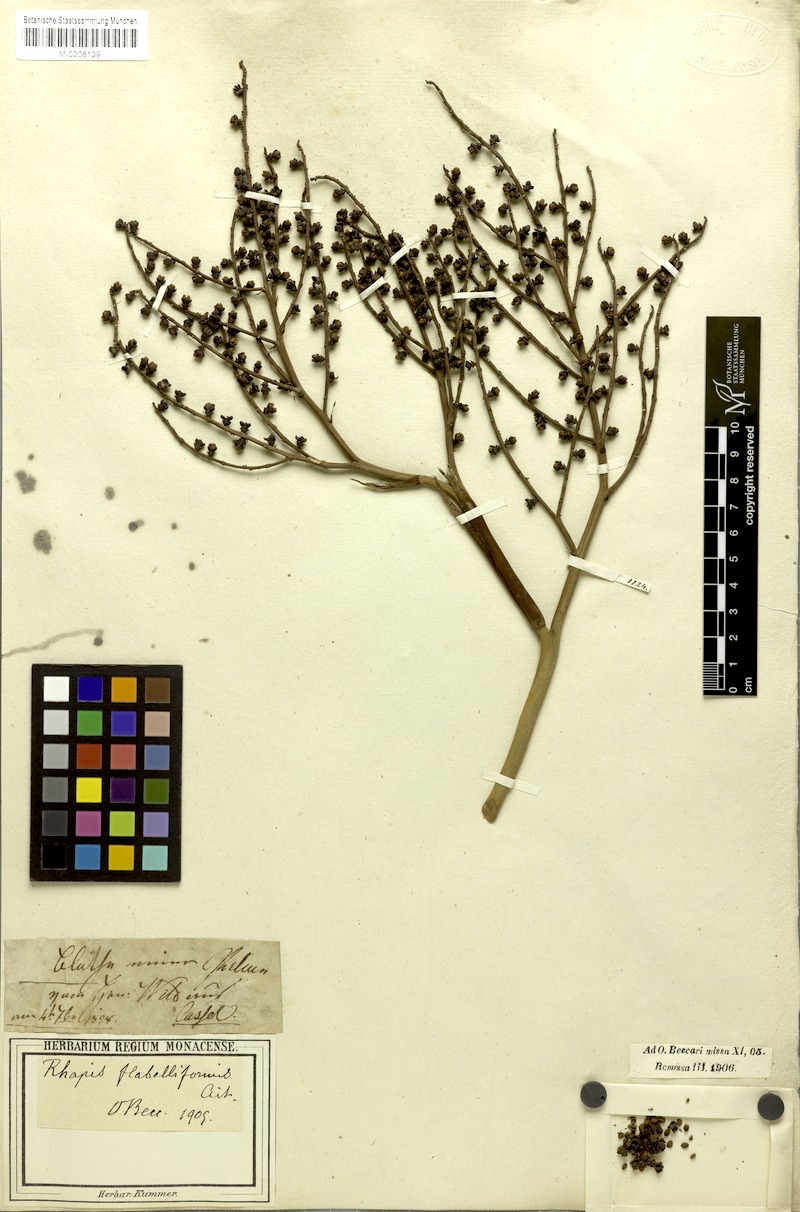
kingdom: Plantae
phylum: Tracheophyta
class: Liliopsida
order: Arecales
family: Arecaceae
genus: Rhapis
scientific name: Rhapis excelsa
